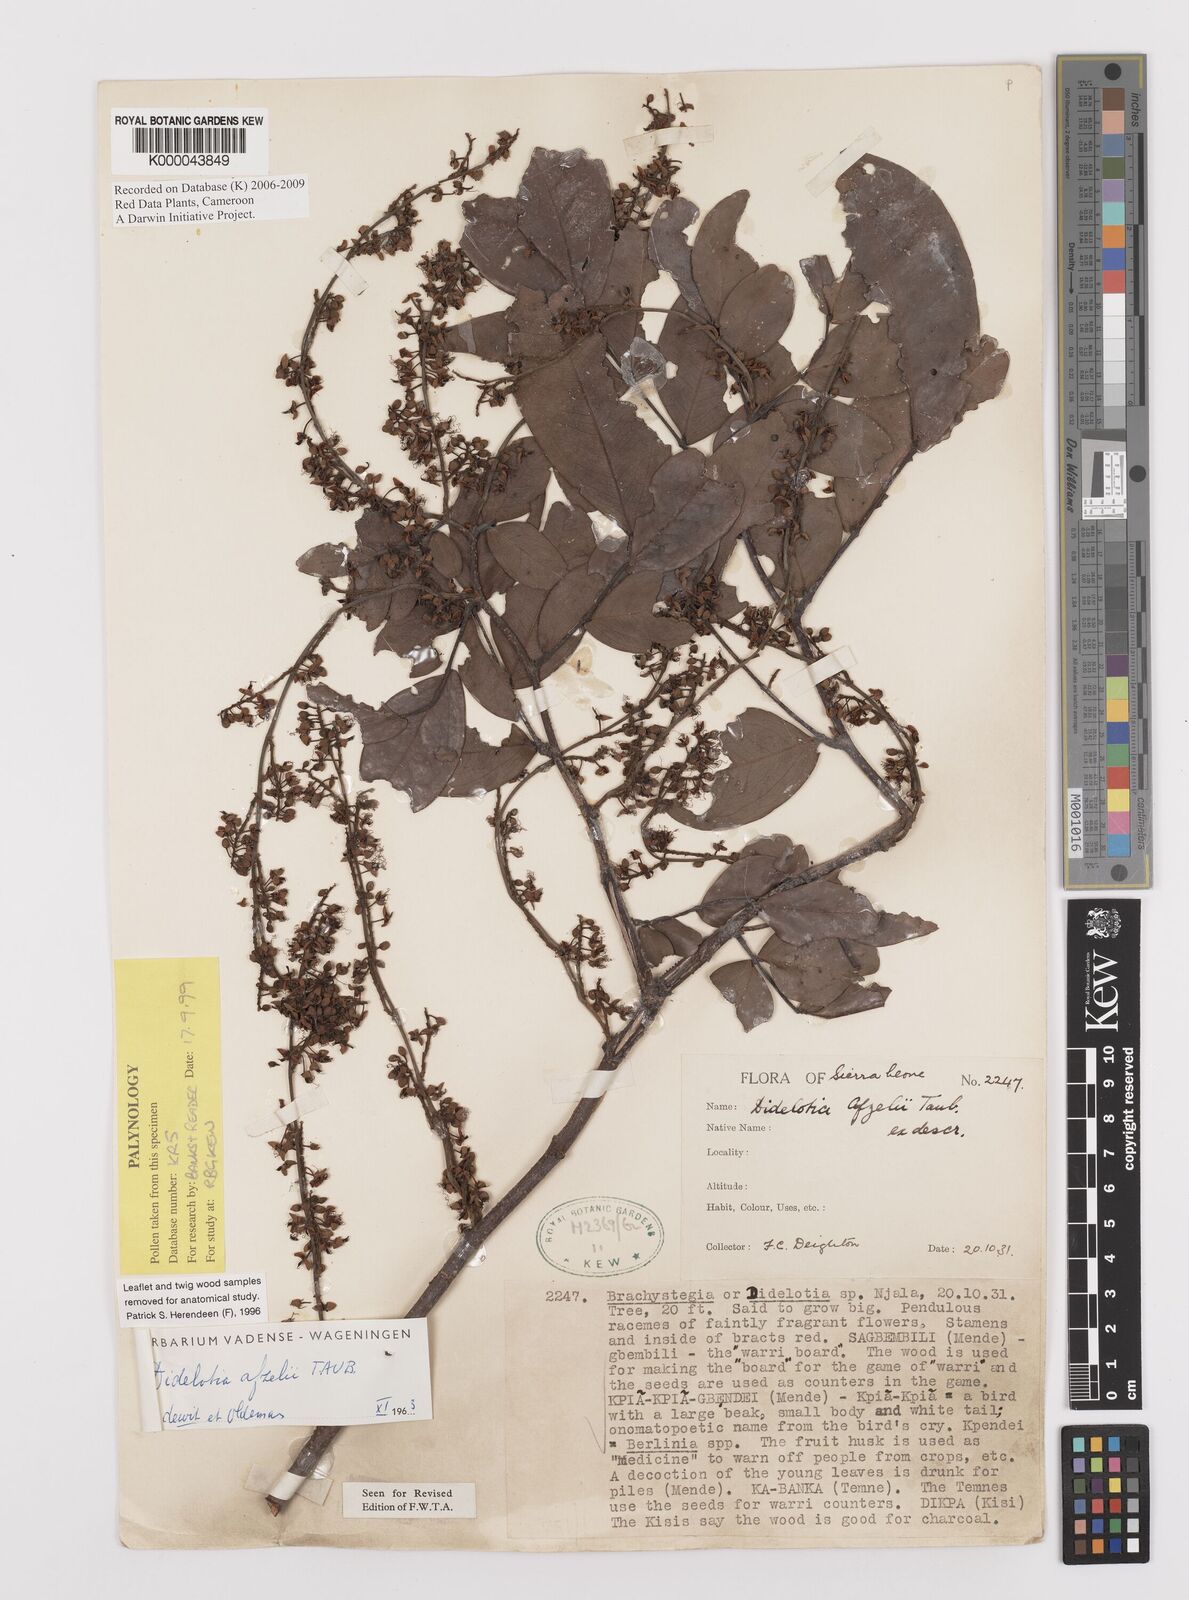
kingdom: Plantae
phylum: Tracheophyta
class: Magnoliopsida
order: Fabales
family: Fabaceae
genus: Didelotia
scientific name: Didelotia
